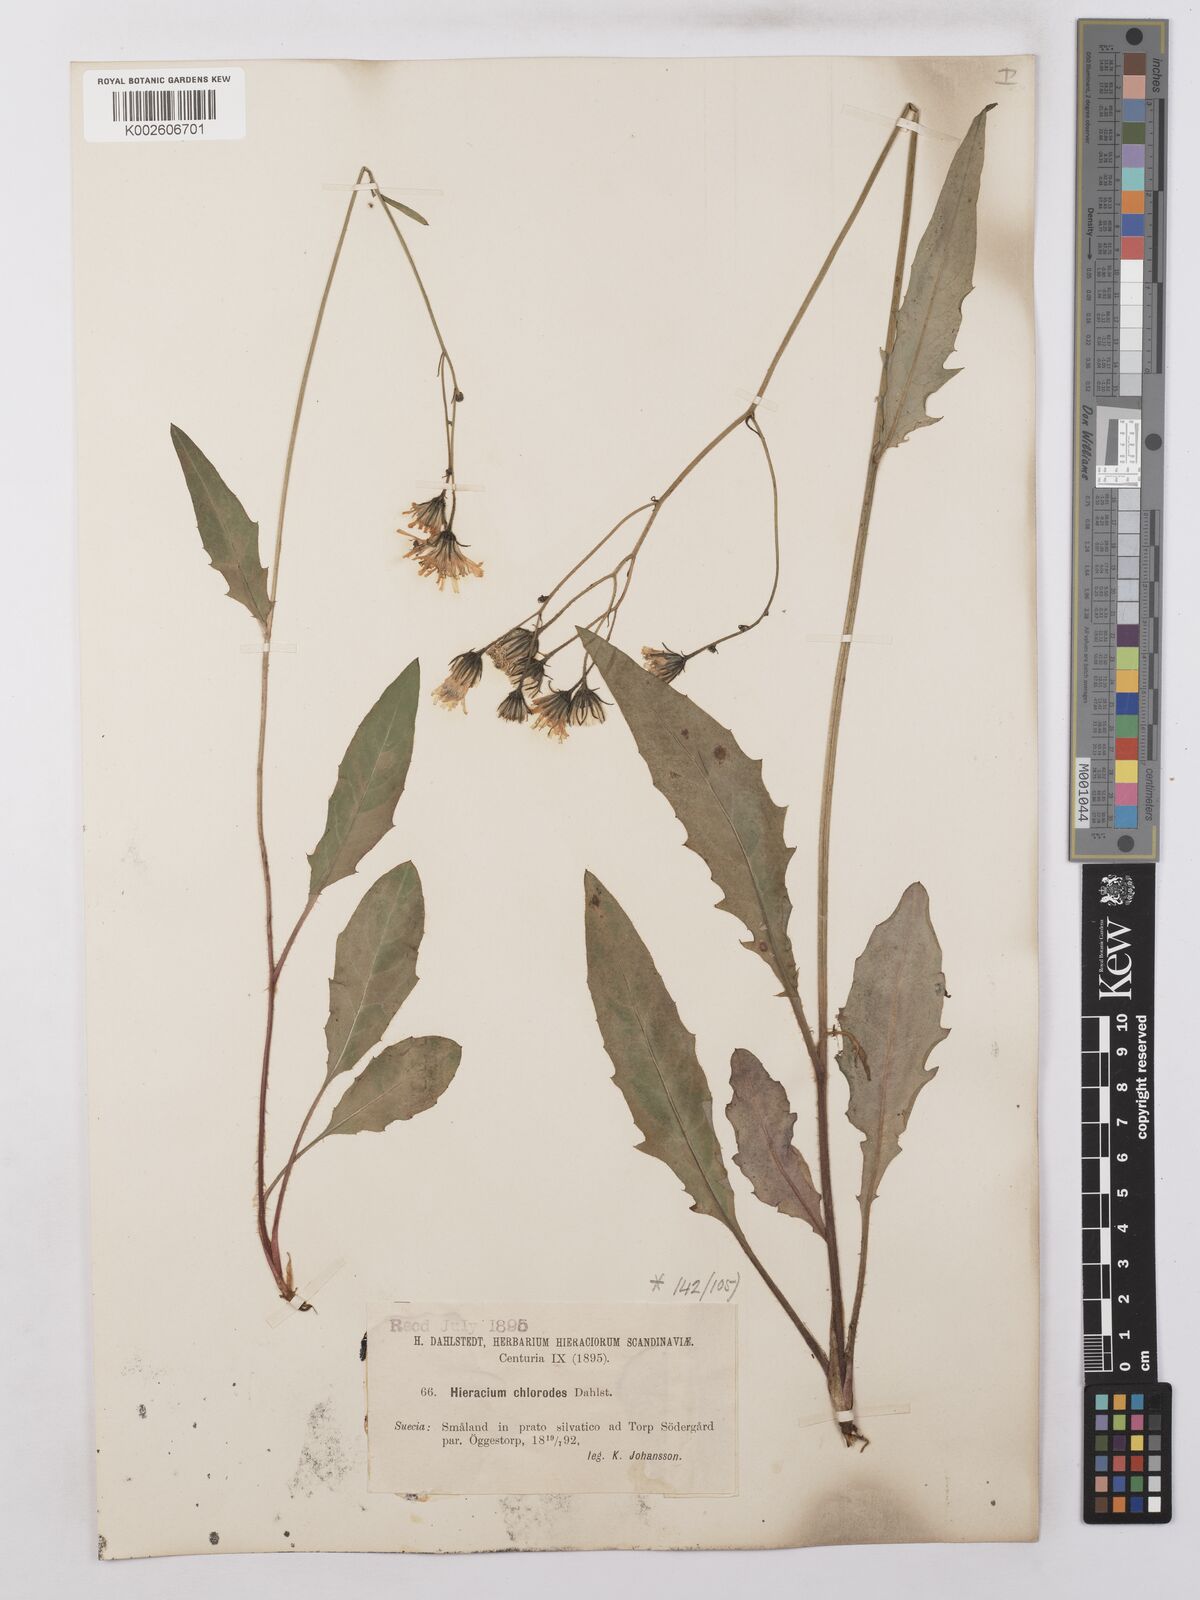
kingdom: Plantae
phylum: Tracheophyta
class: Magnoliopsida
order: Asterales
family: Asteraceae
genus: Hieracium
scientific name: Hieracium lachenalii
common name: Common hawkweed
